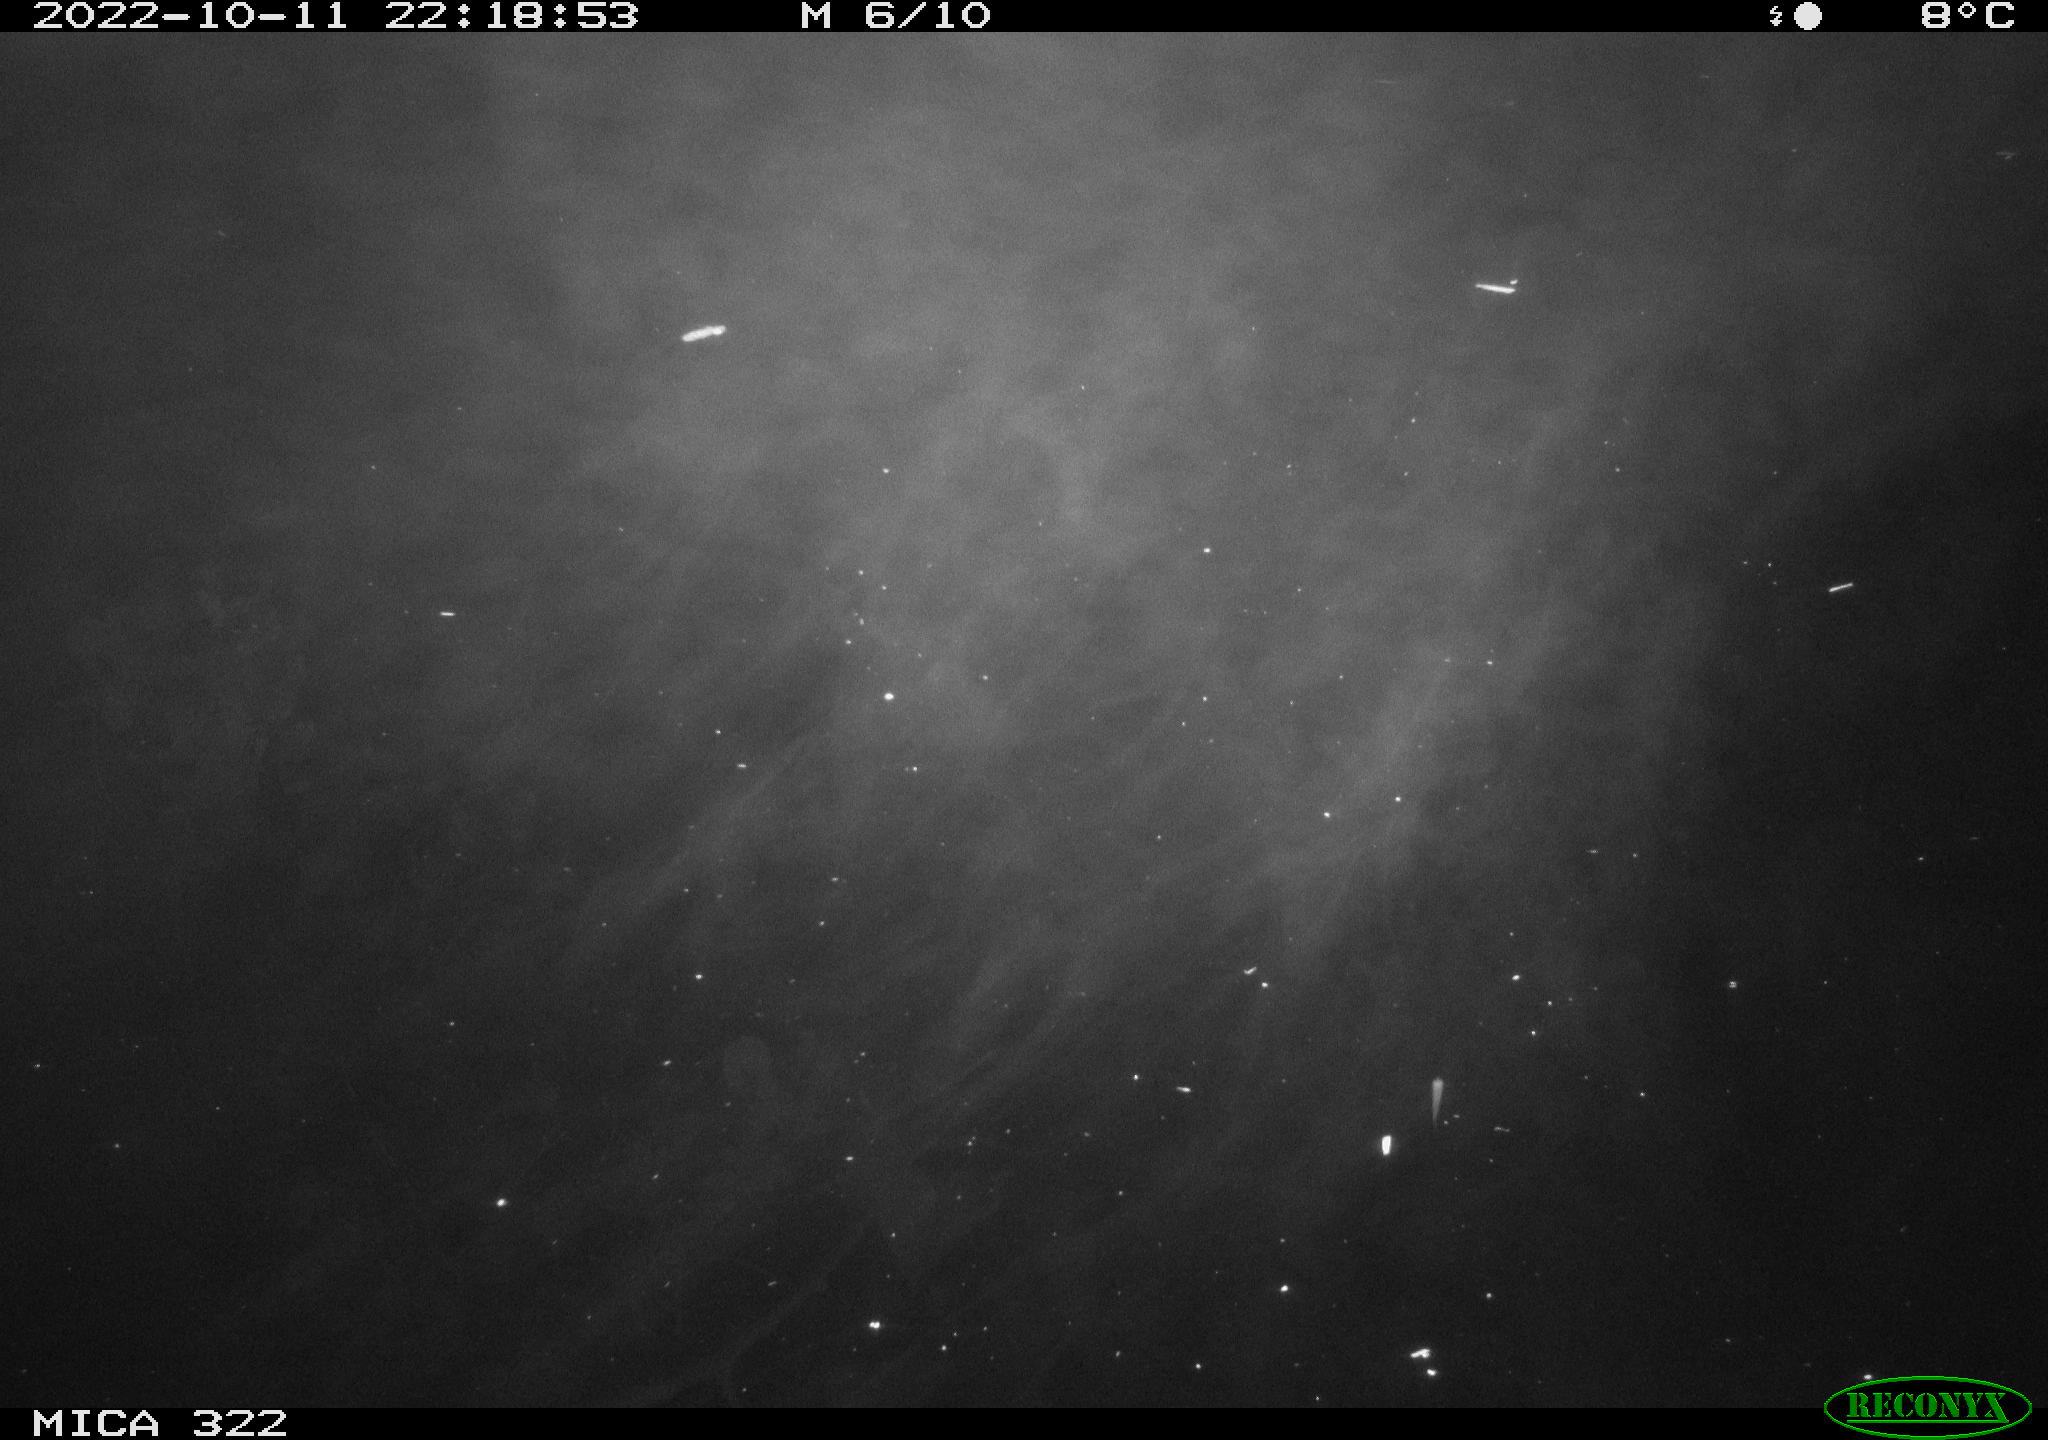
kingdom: Animalia
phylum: Chordata
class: Mammalia
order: Rodentia
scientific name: Rodentia
